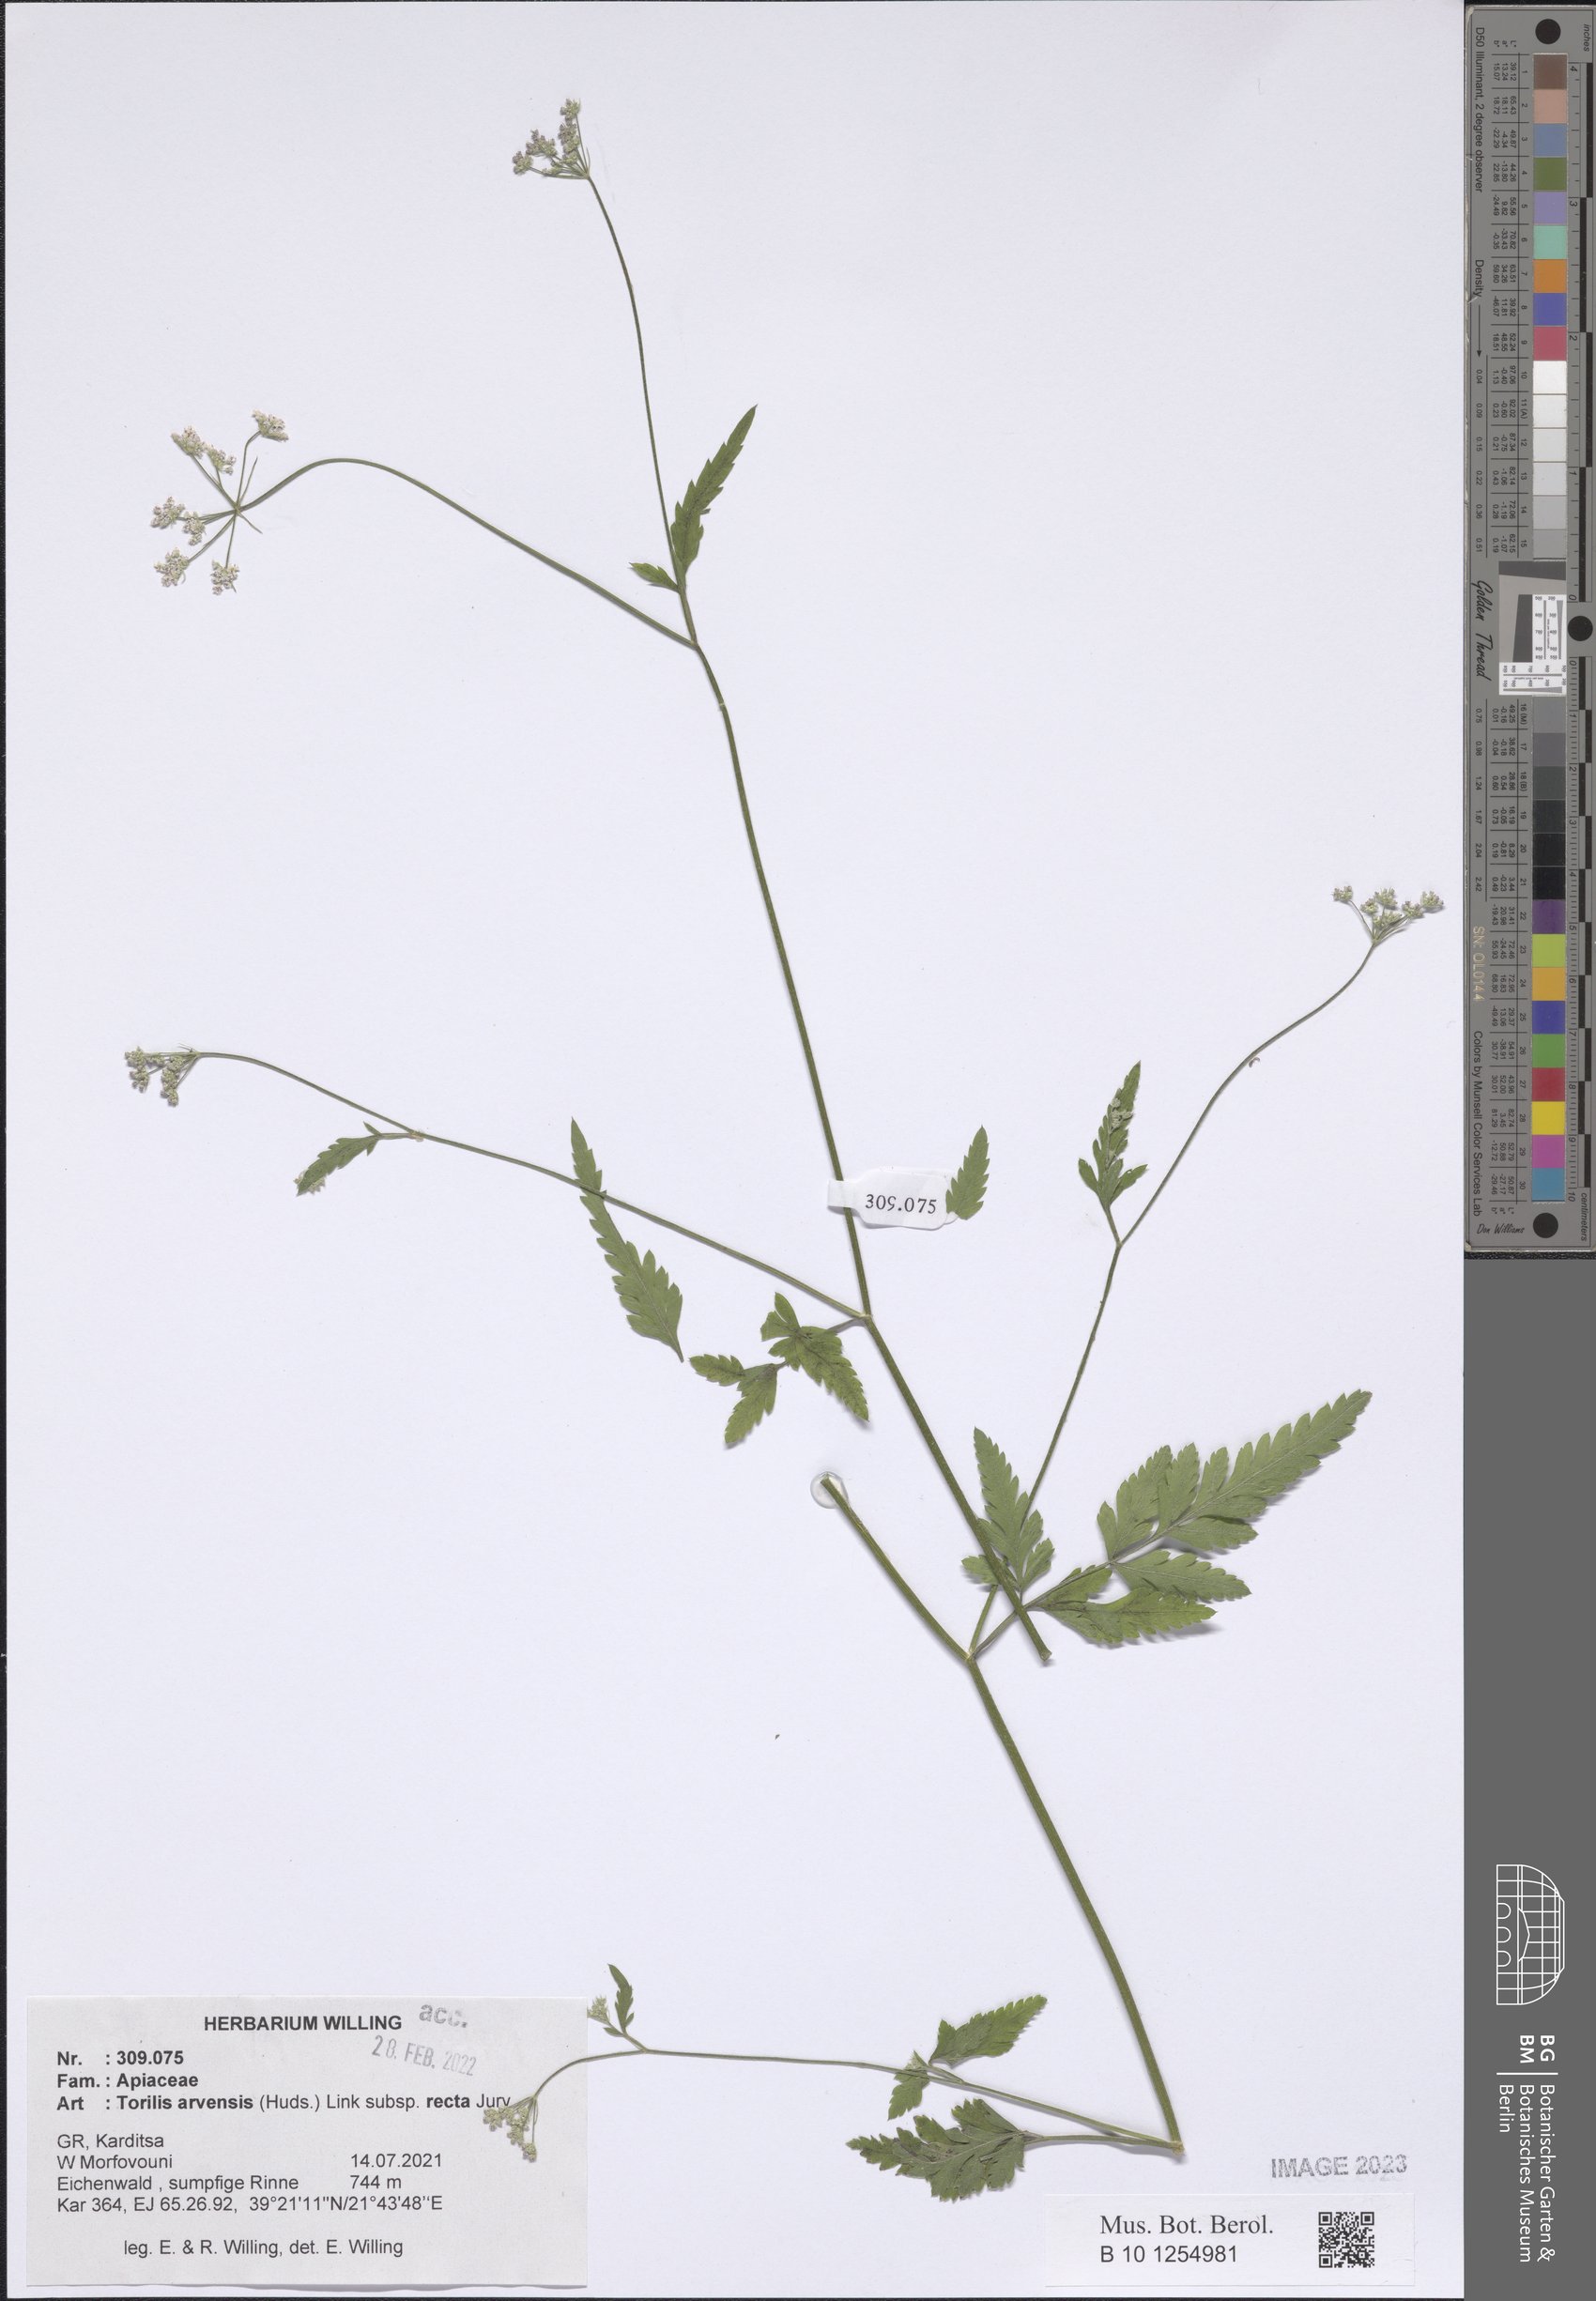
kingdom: Plantae
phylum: Tracheophyta
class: Magnoliopsida
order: Apiales
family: Apiaceae
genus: Torilis
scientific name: Torilis arvensis
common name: Spreading hedge-parsley
